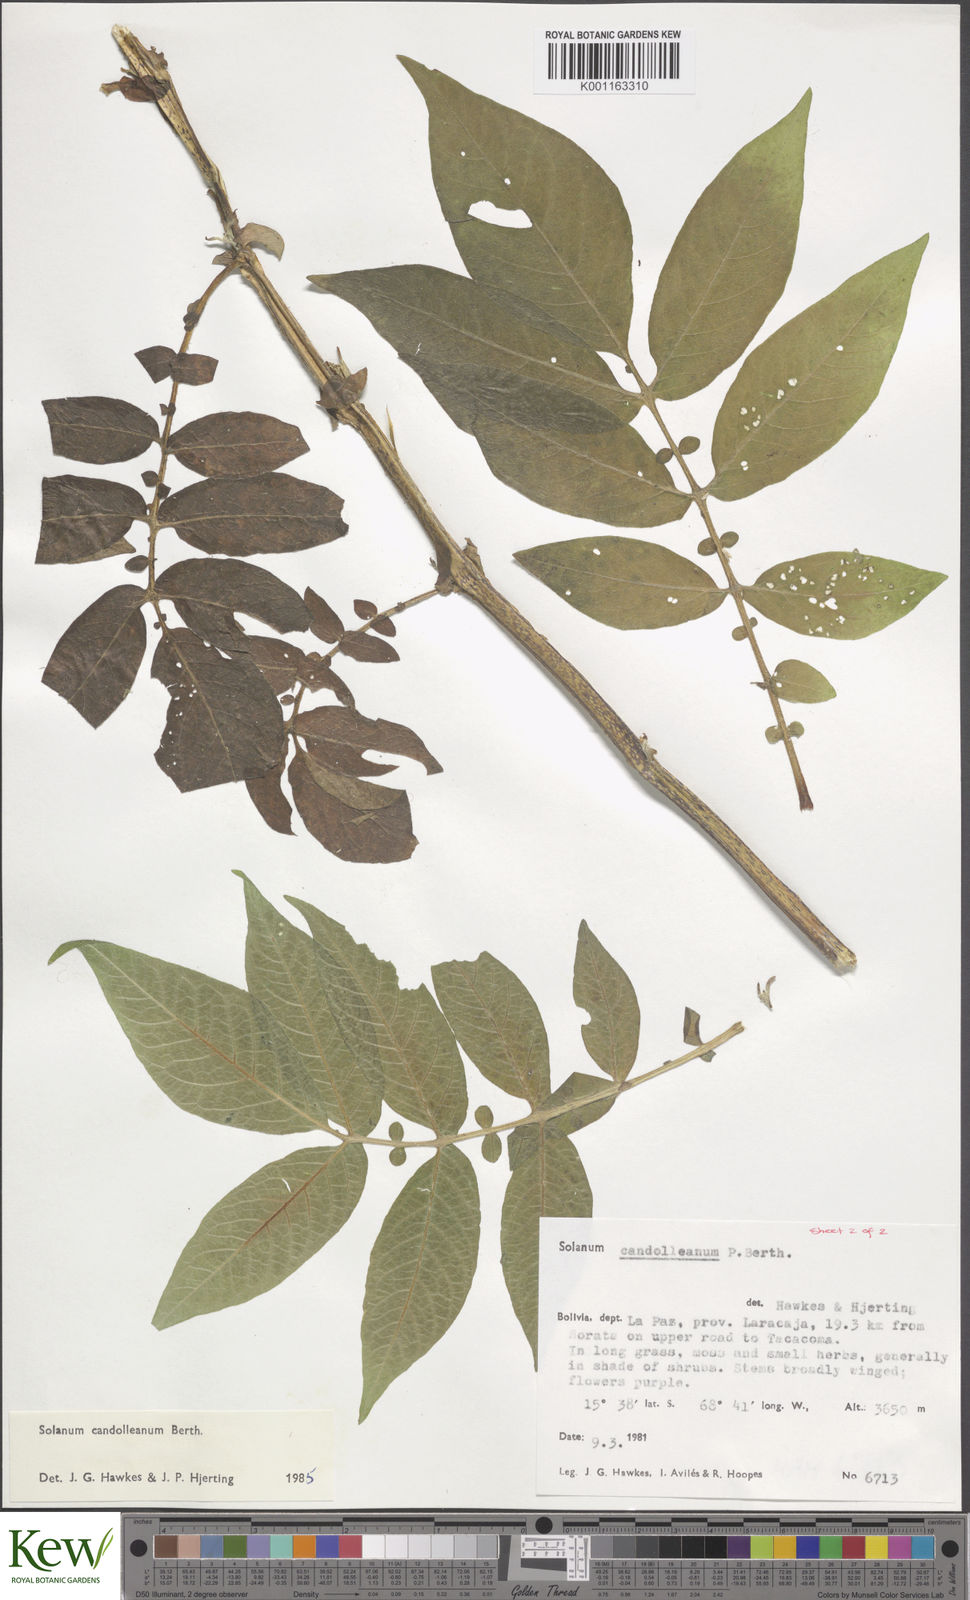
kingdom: Plantae
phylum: Tracheophyta
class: Magnoliopsida
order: Solanales
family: Solanaceae
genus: Solanum
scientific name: Solanum candolleanum
